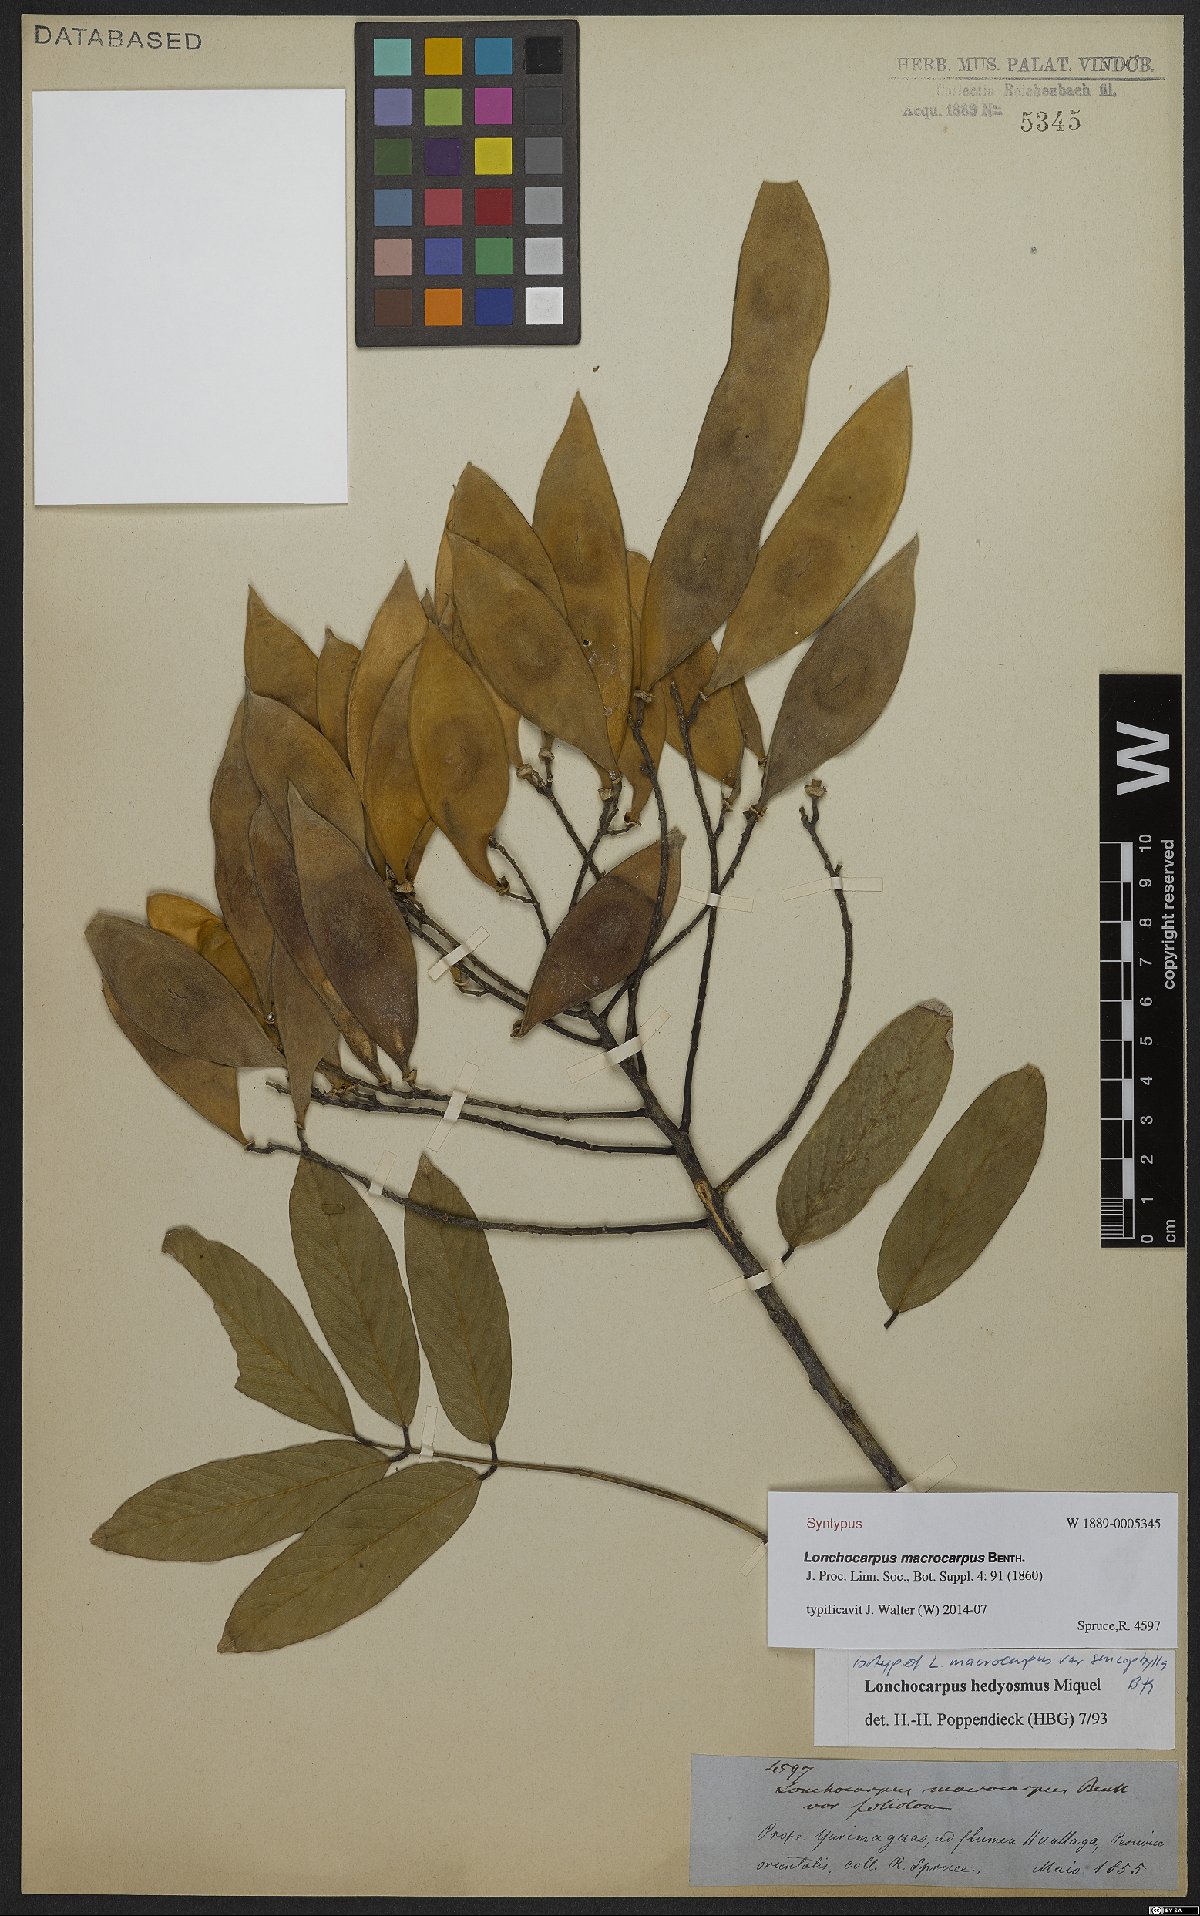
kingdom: Plantae
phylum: Tracheophyta
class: Magnoliopsida
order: Fabales
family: Fabaceae
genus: Lonchocarpus
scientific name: Lonchocarpus hedyosmus
